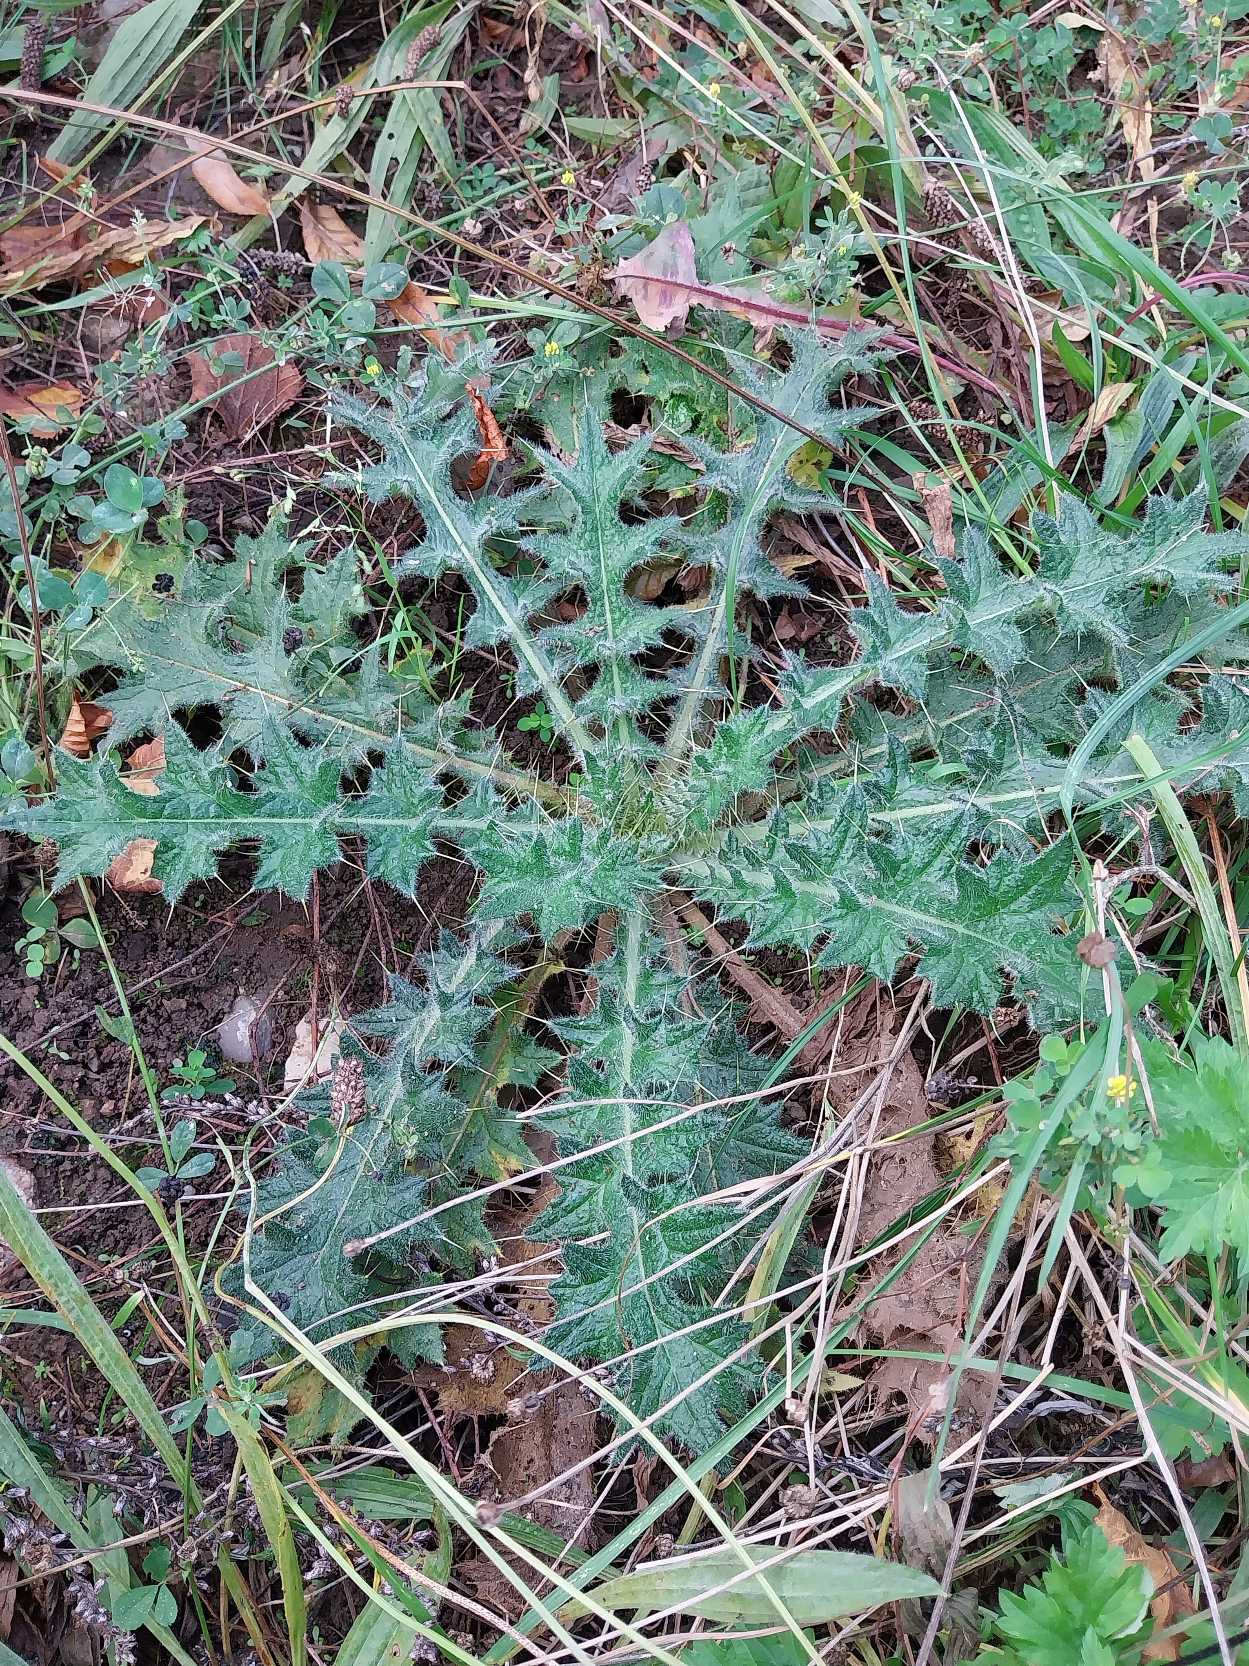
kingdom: Plantae
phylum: Tracheophyta
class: Magnoliopsida
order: Asterales
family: Asteraceae
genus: Cirsium
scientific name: Cirsium vulgare
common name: Horse-tidsel
